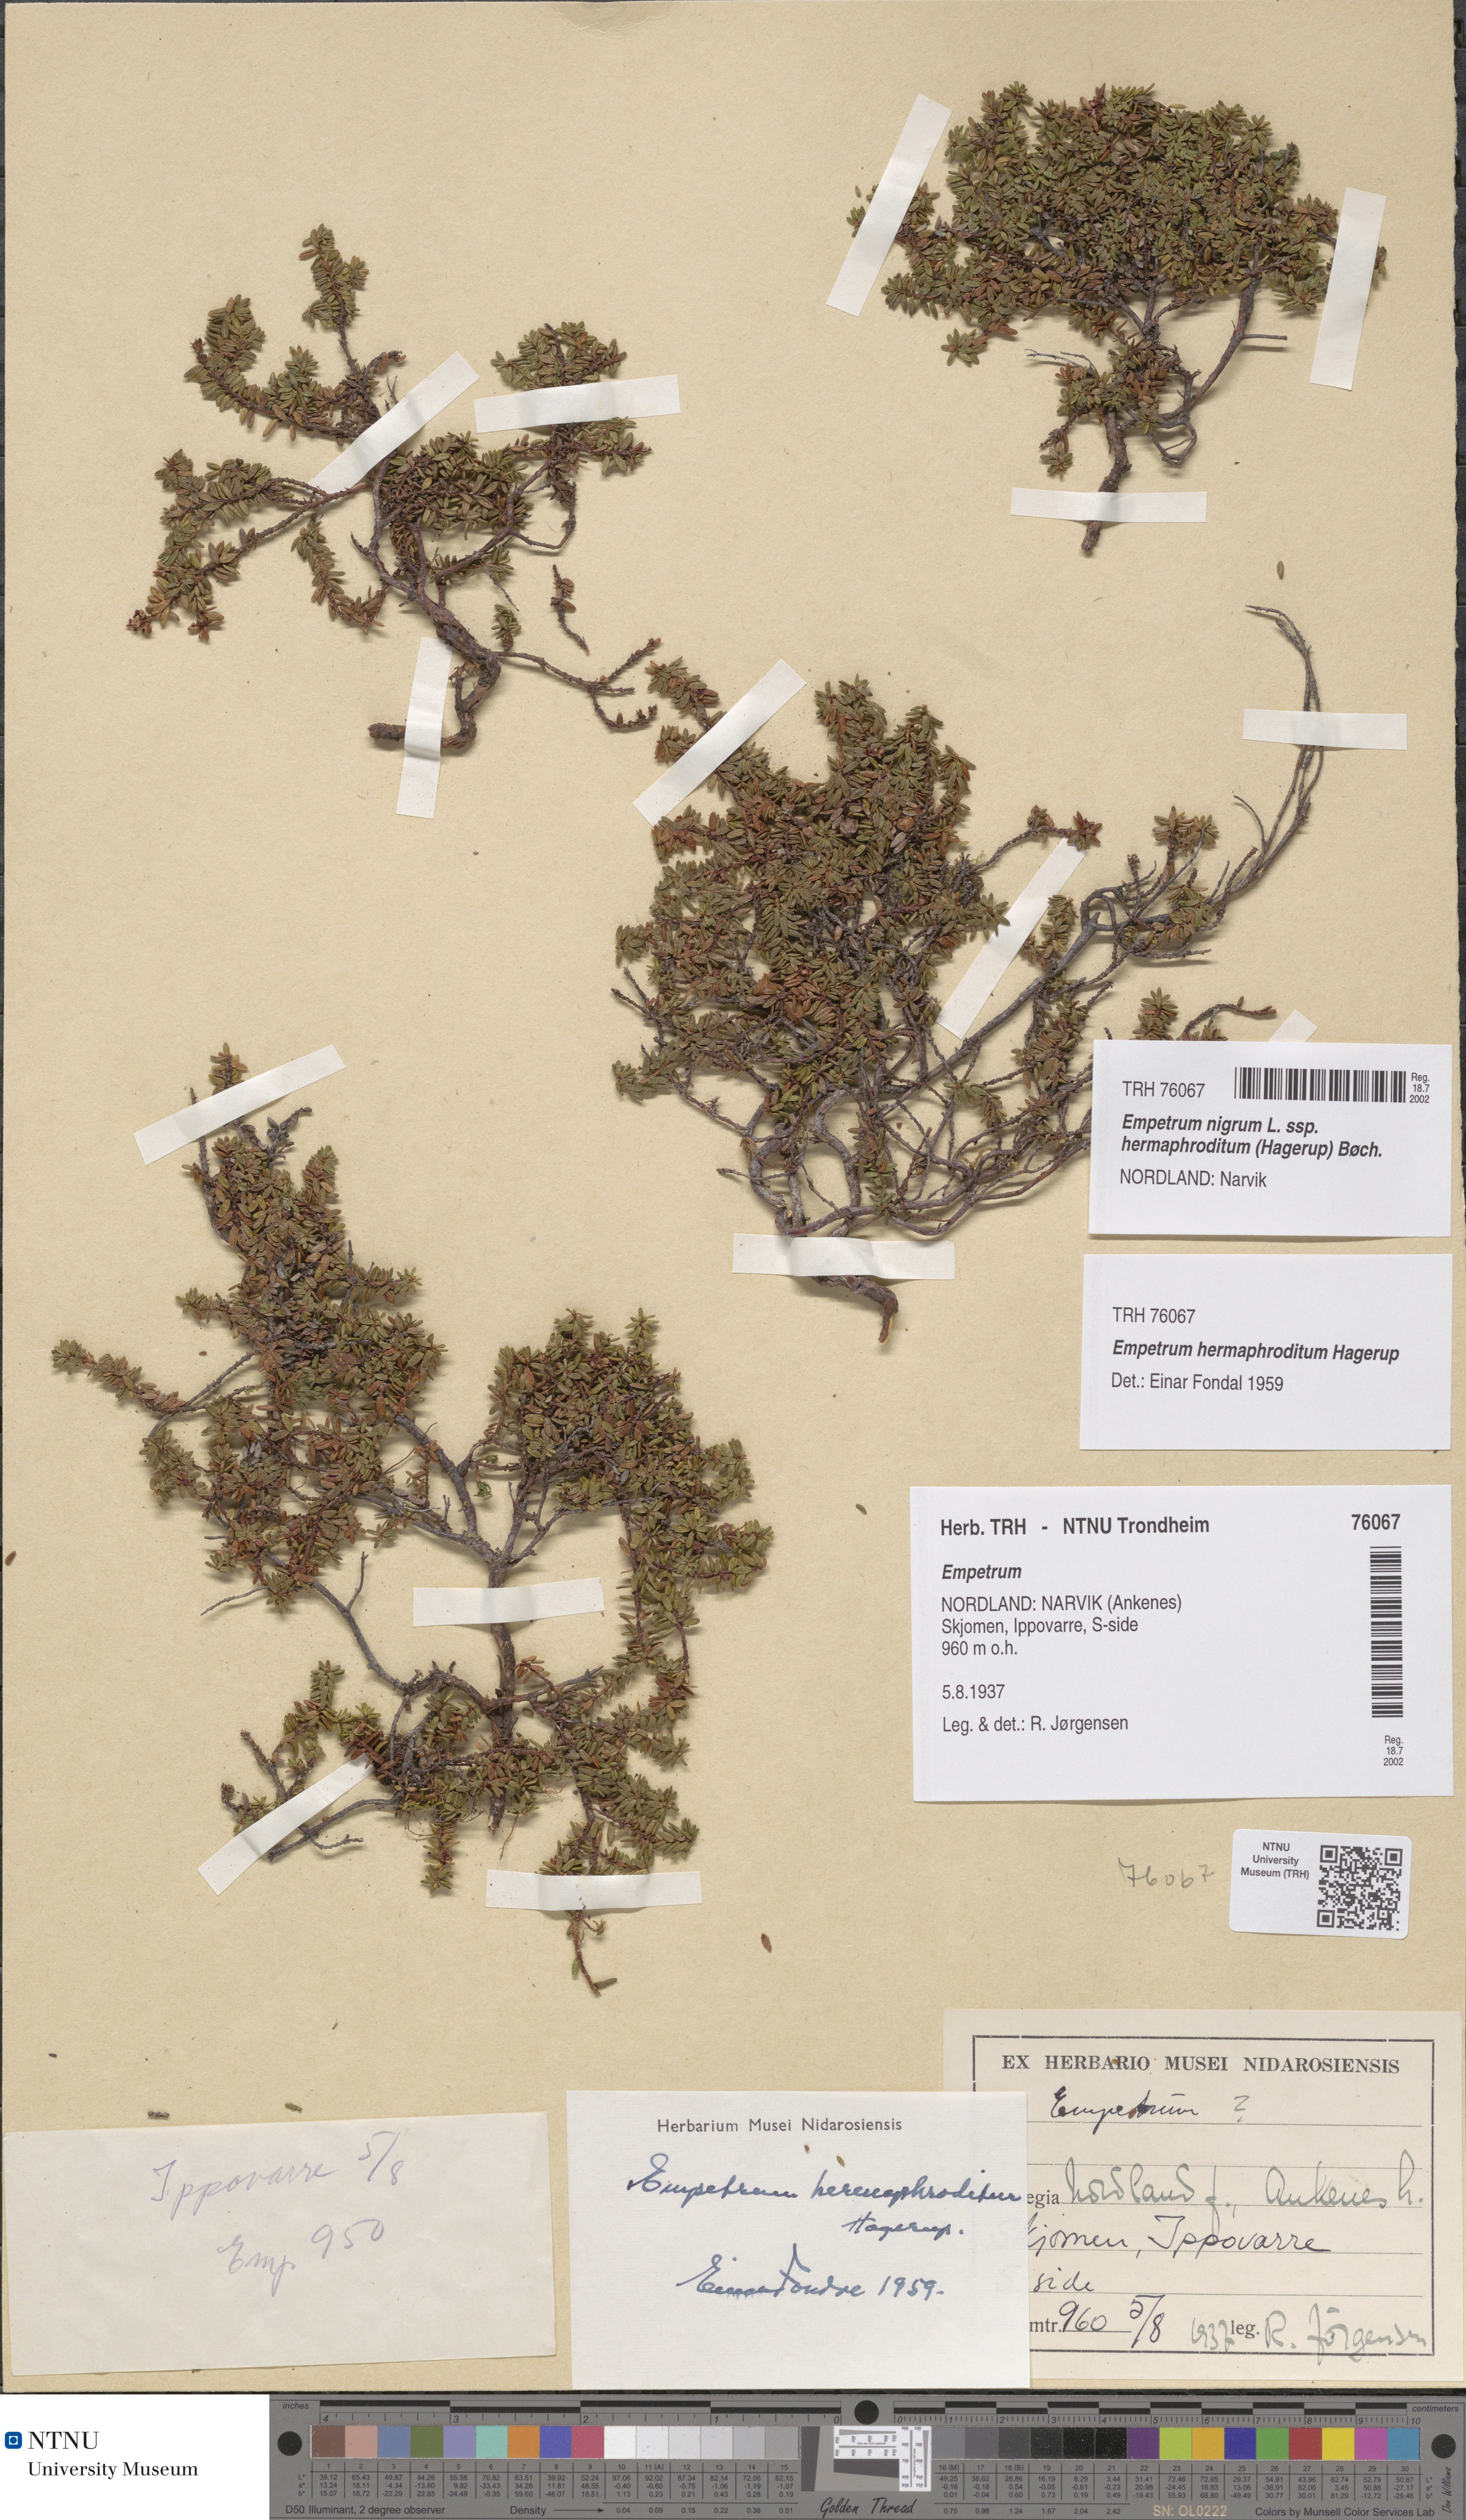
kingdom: Plantae
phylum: Tracheophyta
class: Magnoliopsida
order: Ericales
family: Ericaceae
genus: Empetrum
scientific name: Empetrum hermaphroditum
